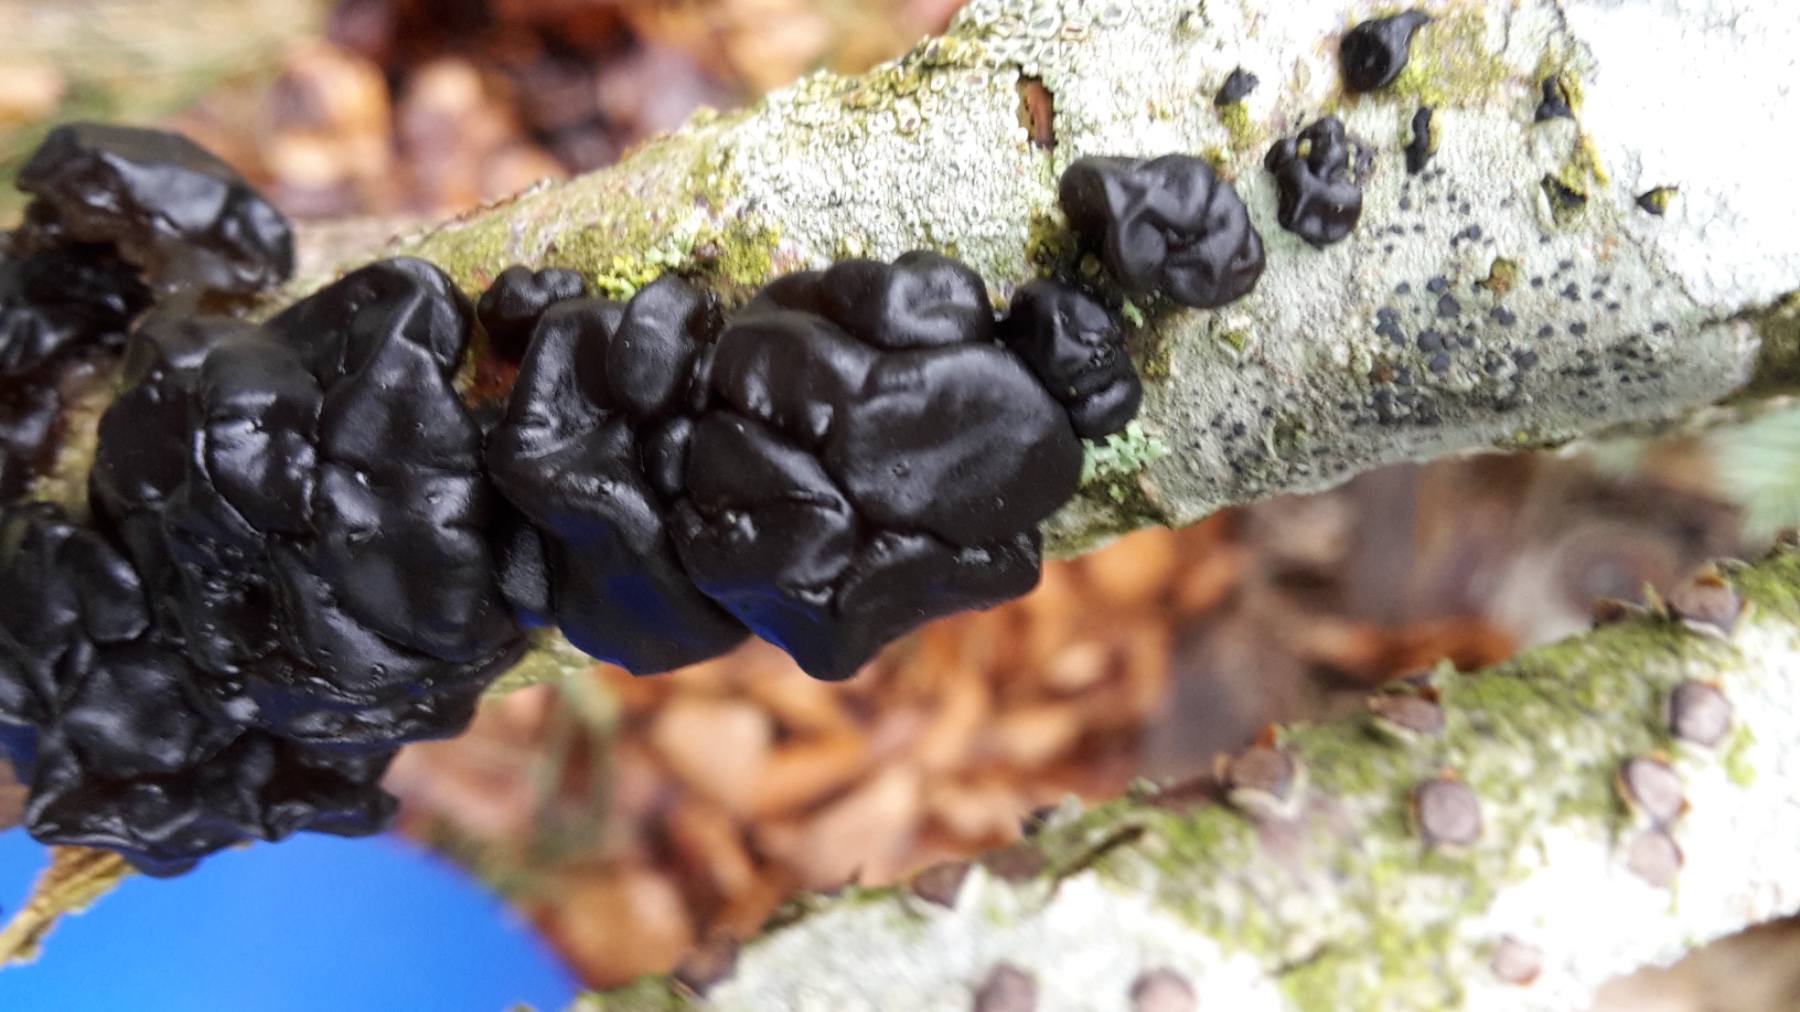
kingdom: Fungi
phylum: Basidiomycota
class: Agaricomycetes
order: Auriculariales
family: Auriculariaceae
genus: Exidia
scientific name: Exidia nigricans
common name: almindelig bævretop
